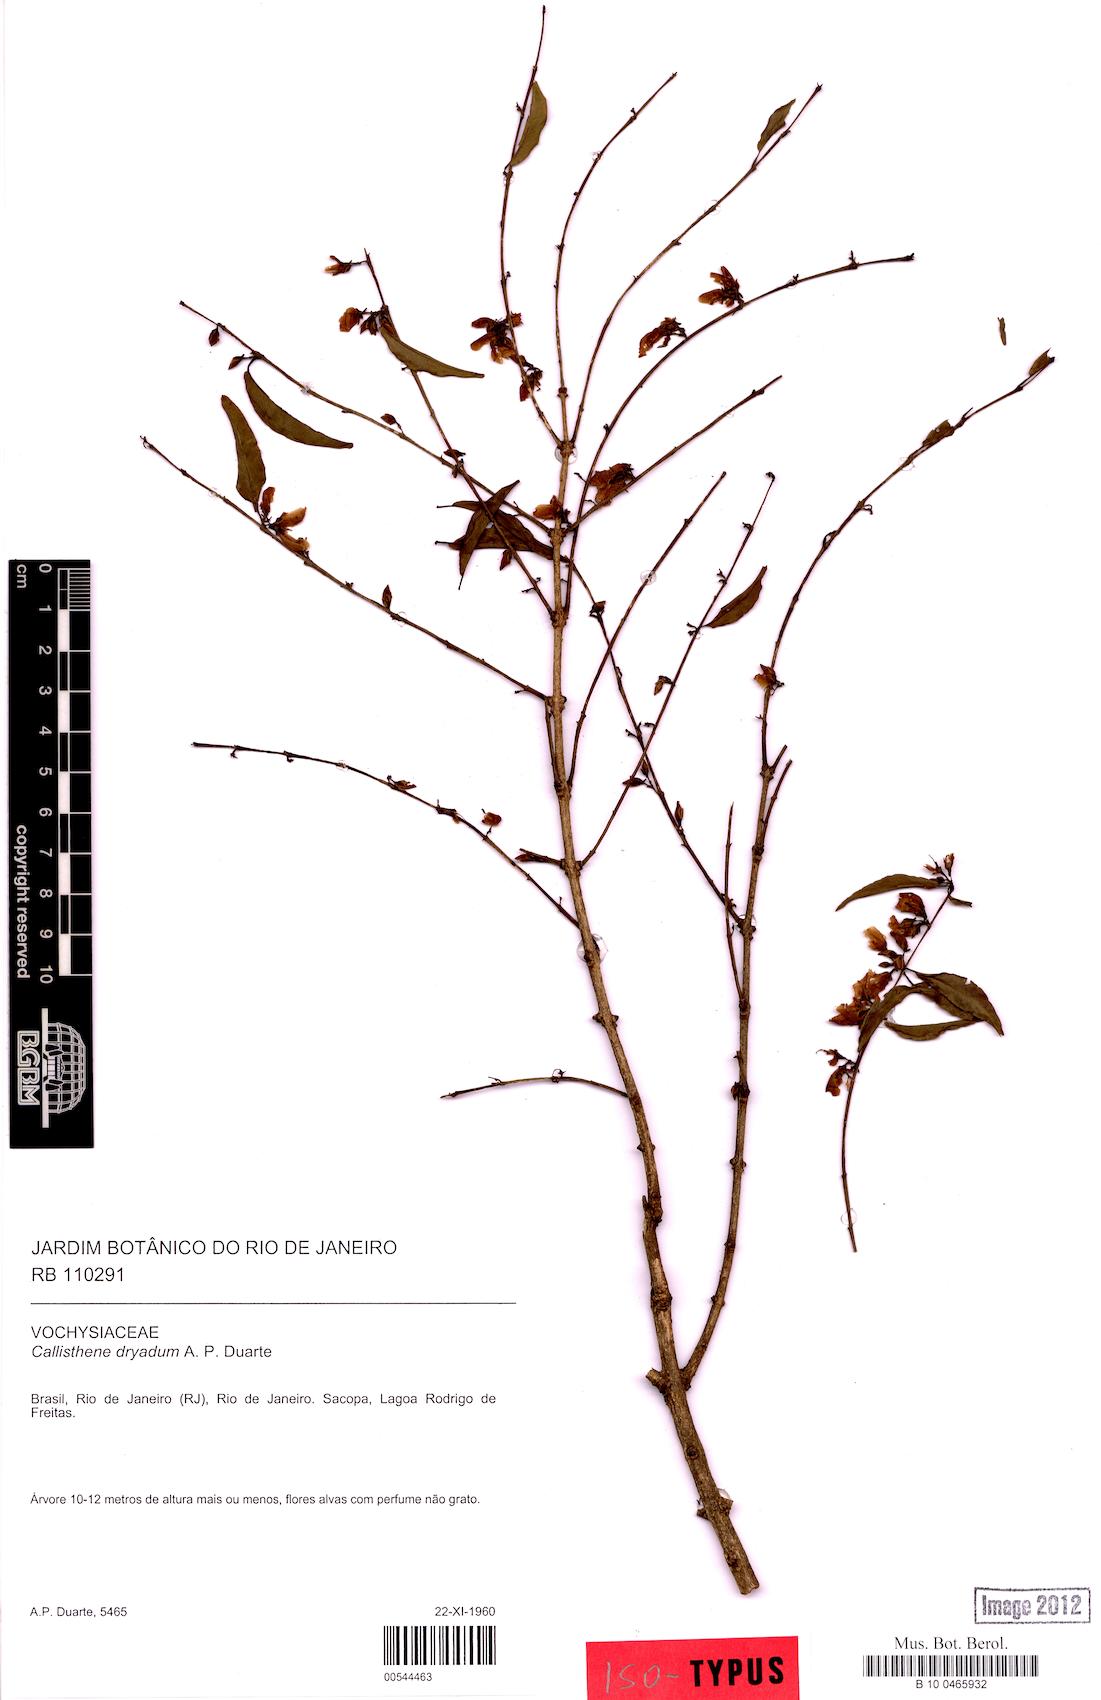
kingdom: Plantae
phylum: Tracheophyta
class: Magnoliopsida
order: Myrtales
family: Vochysiaceae
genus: Callisthene
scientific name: Callisthene dryadum
